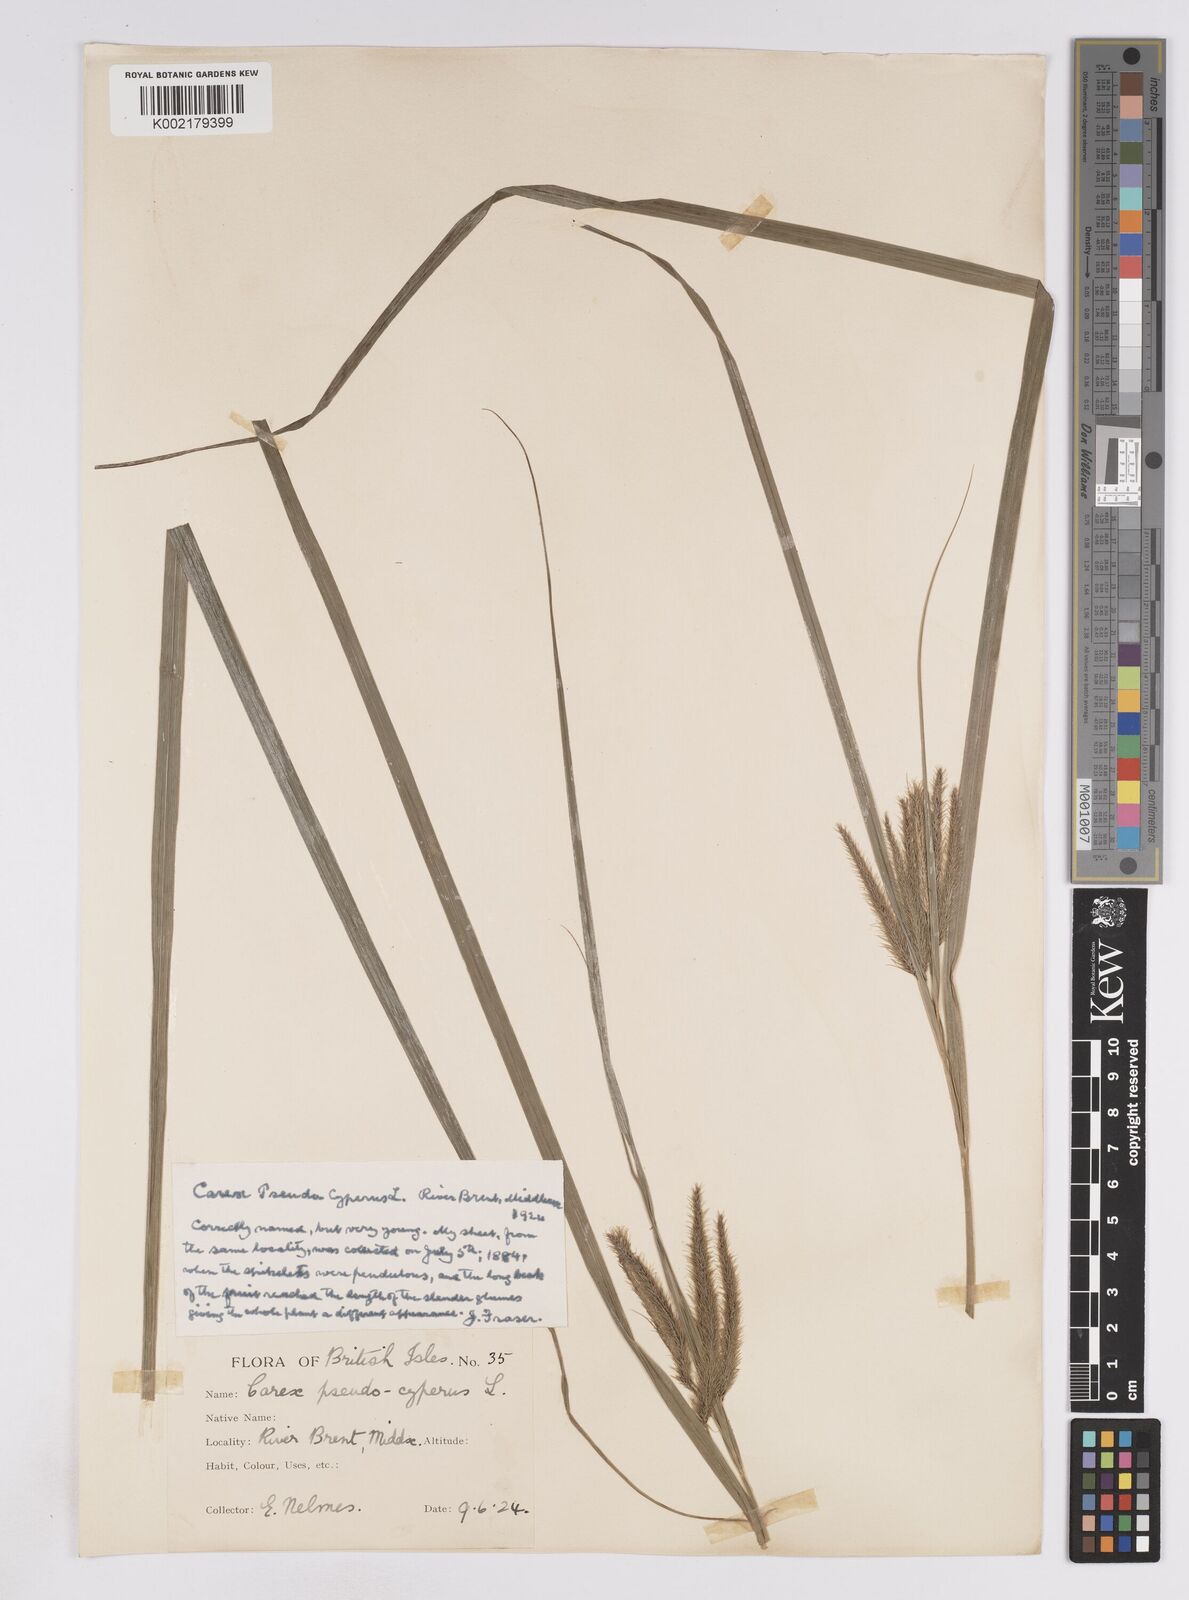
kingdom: Plantae
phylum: Tracheophyta
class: Liliopsida
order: Poales
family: Cyperaceae
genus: Carex
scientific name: Carex pseudocyperus
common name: Cyperus sedge
